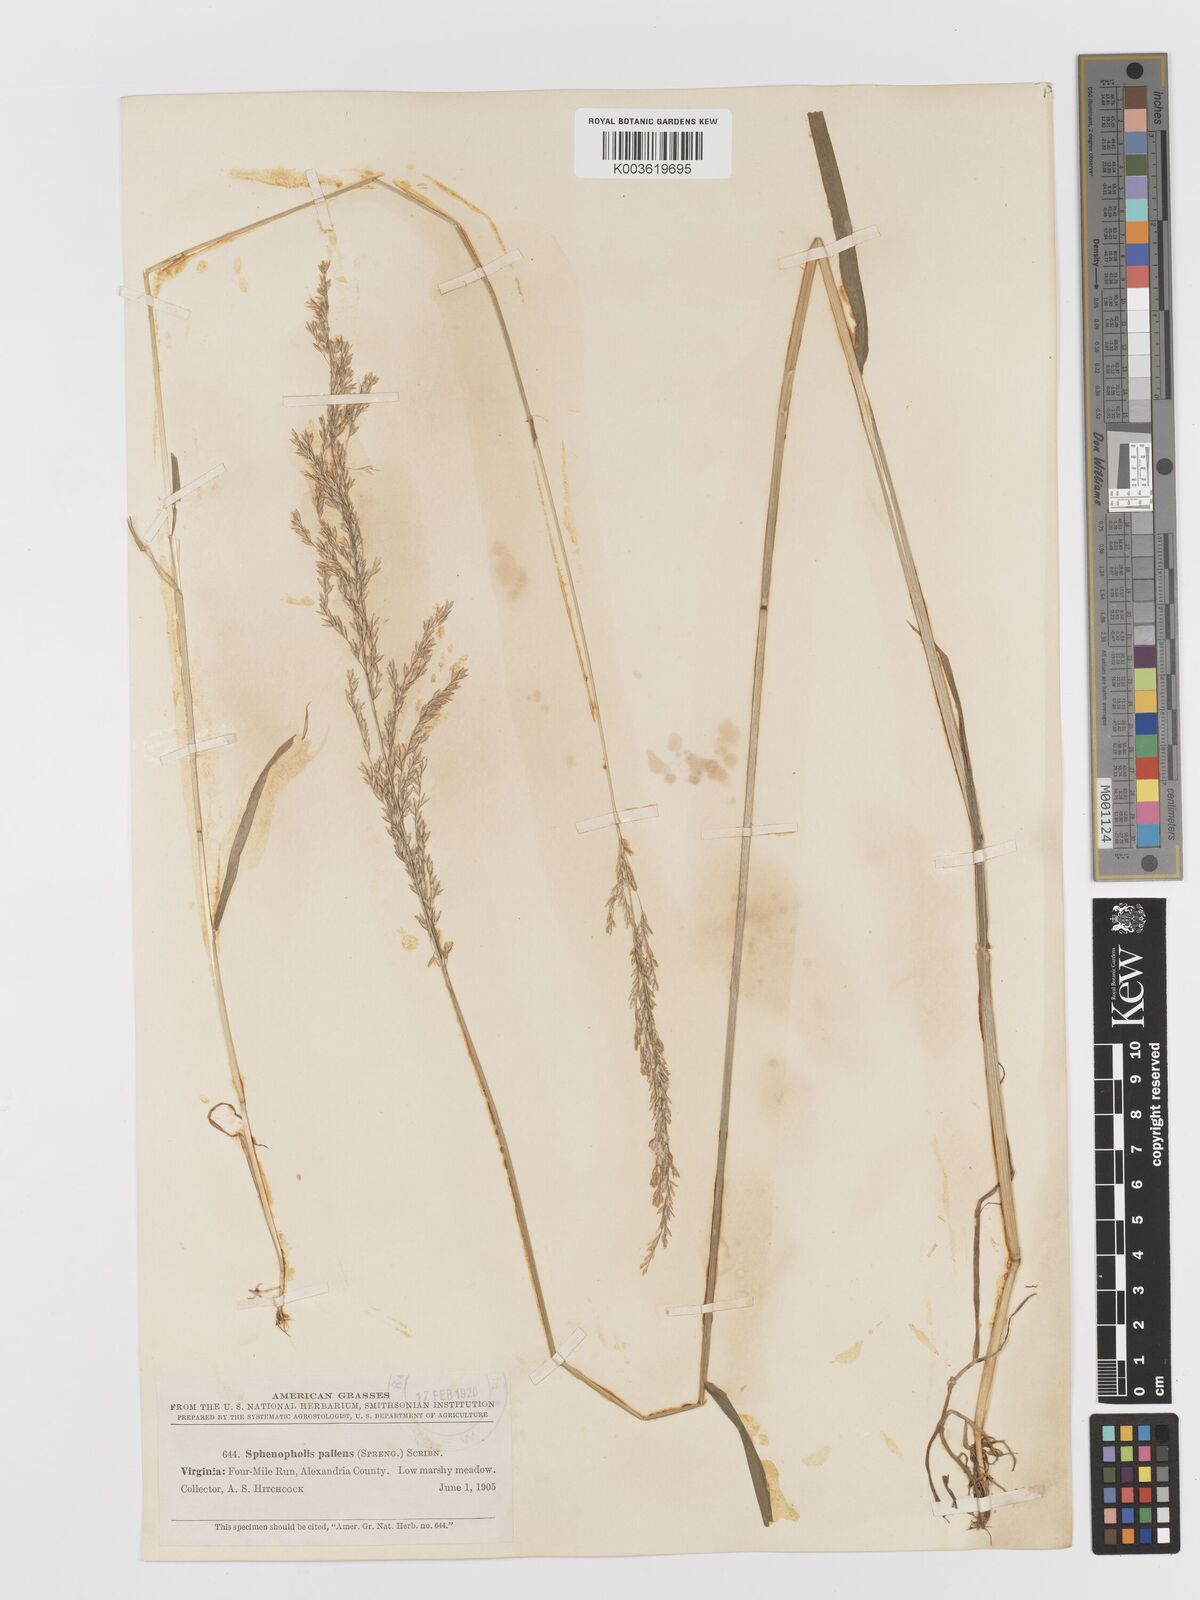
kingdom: Plantae
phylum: Tracheophyta
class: Liliopsida
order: Poales
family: Poaceae
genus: Sphenopholis
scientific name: Sphenopholis obtusata
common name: Prairie grass
